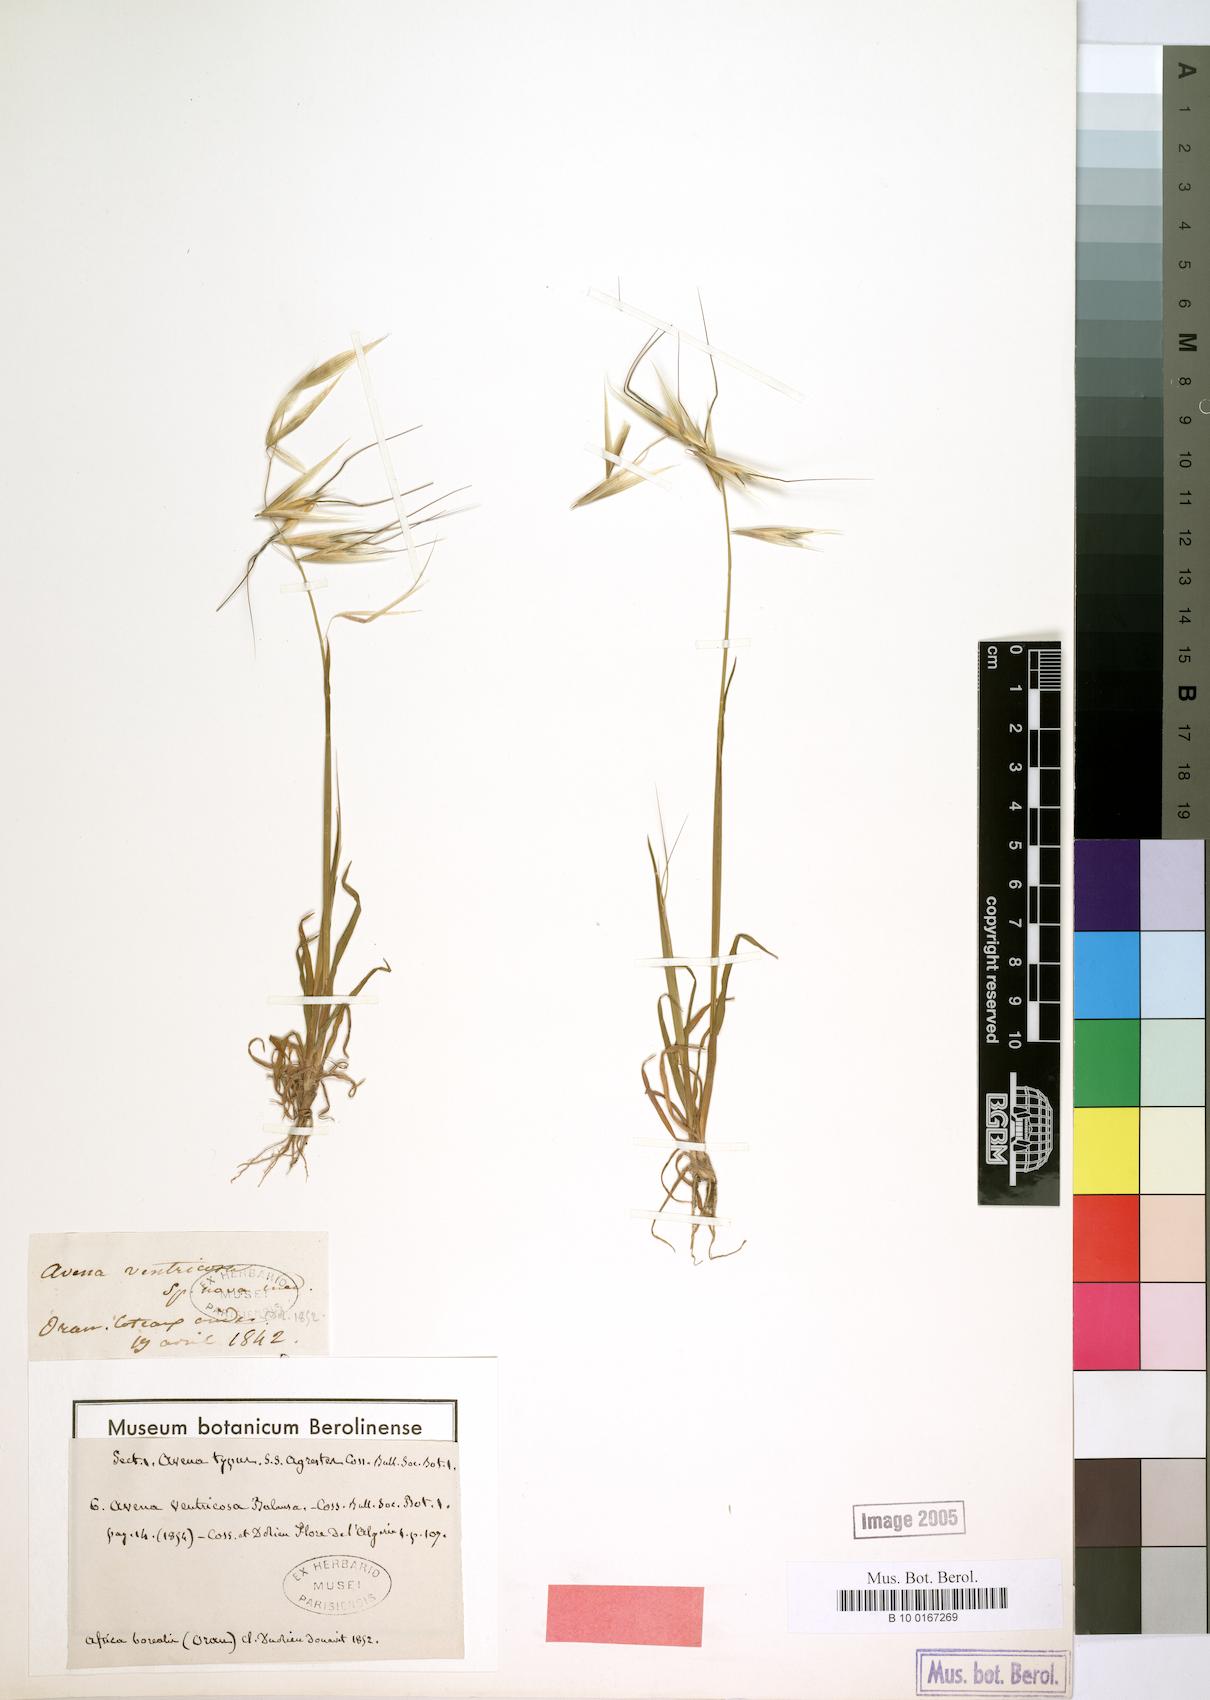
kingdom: Plantae
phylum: Tracheophyta
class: Liliopsida
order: Poales
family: Poaceae
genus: Avena
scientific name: Avena ventricosa
